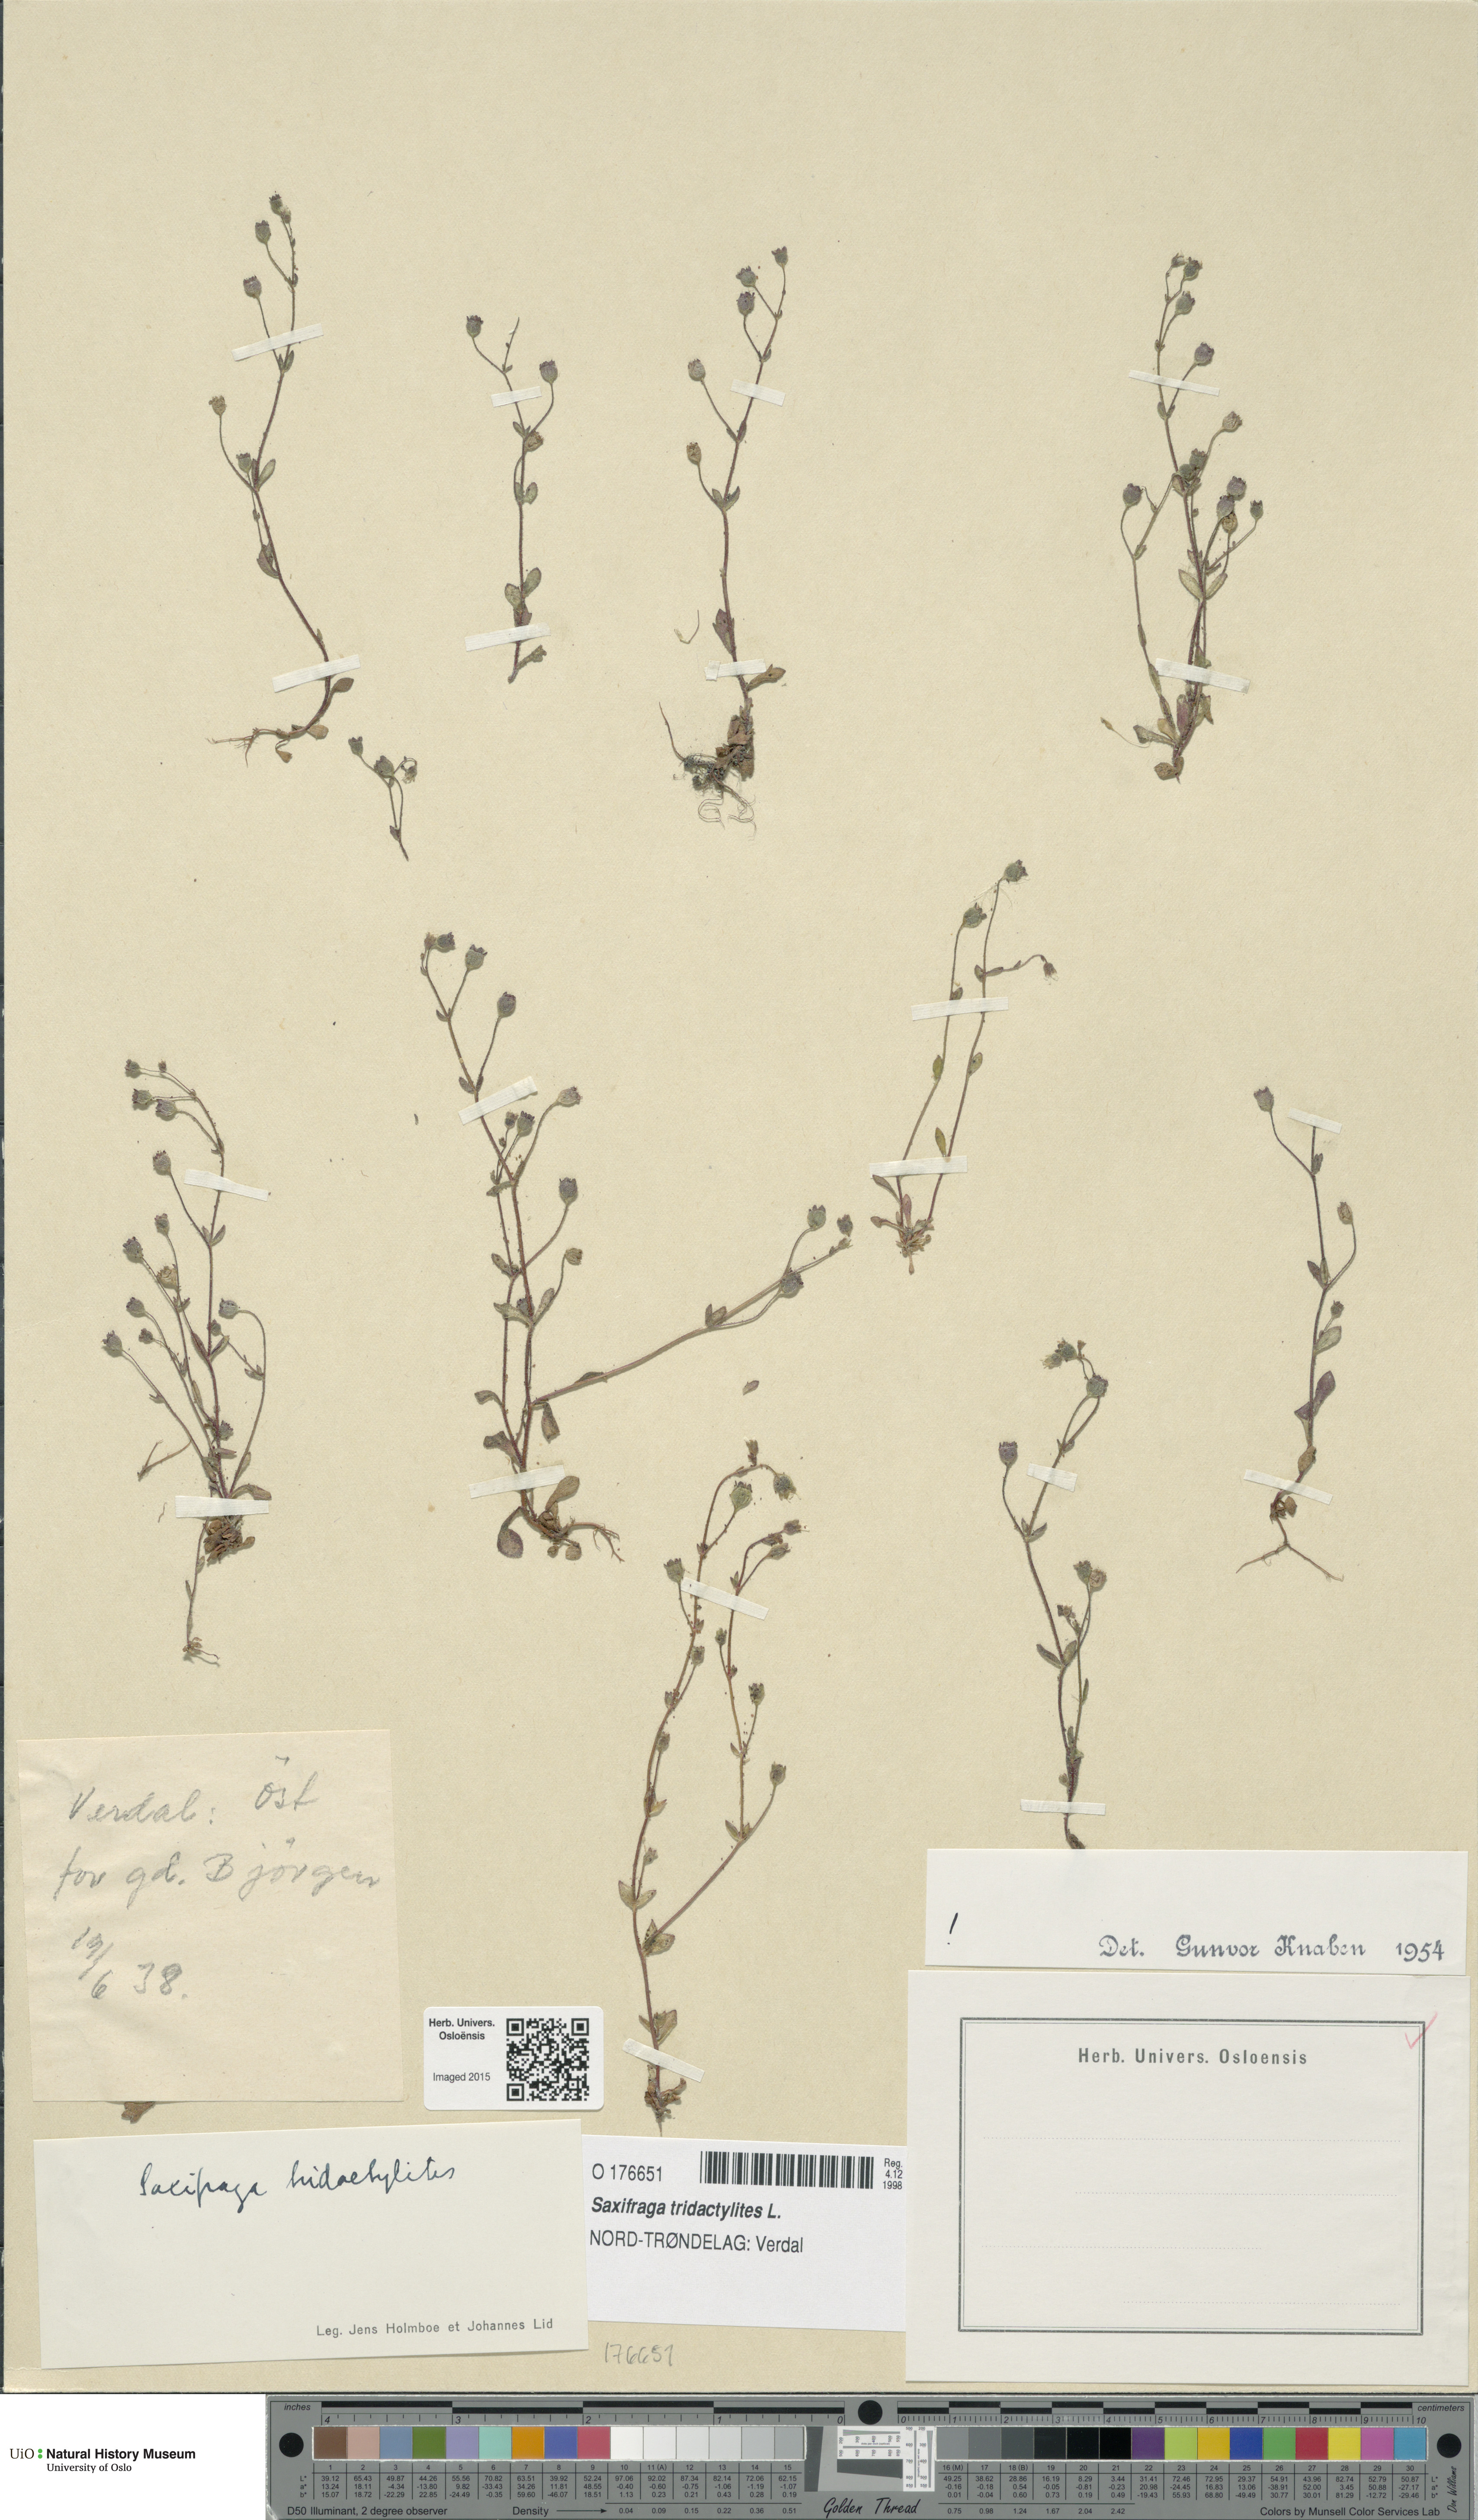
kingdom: Plantae
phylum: Tracheophyta
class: Magnoliopsida
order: Saxifragales
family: Saxifragaceae
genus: Saxifraga
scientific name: Saxifraga tridactylites
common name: Rue-leaved saxifrage
